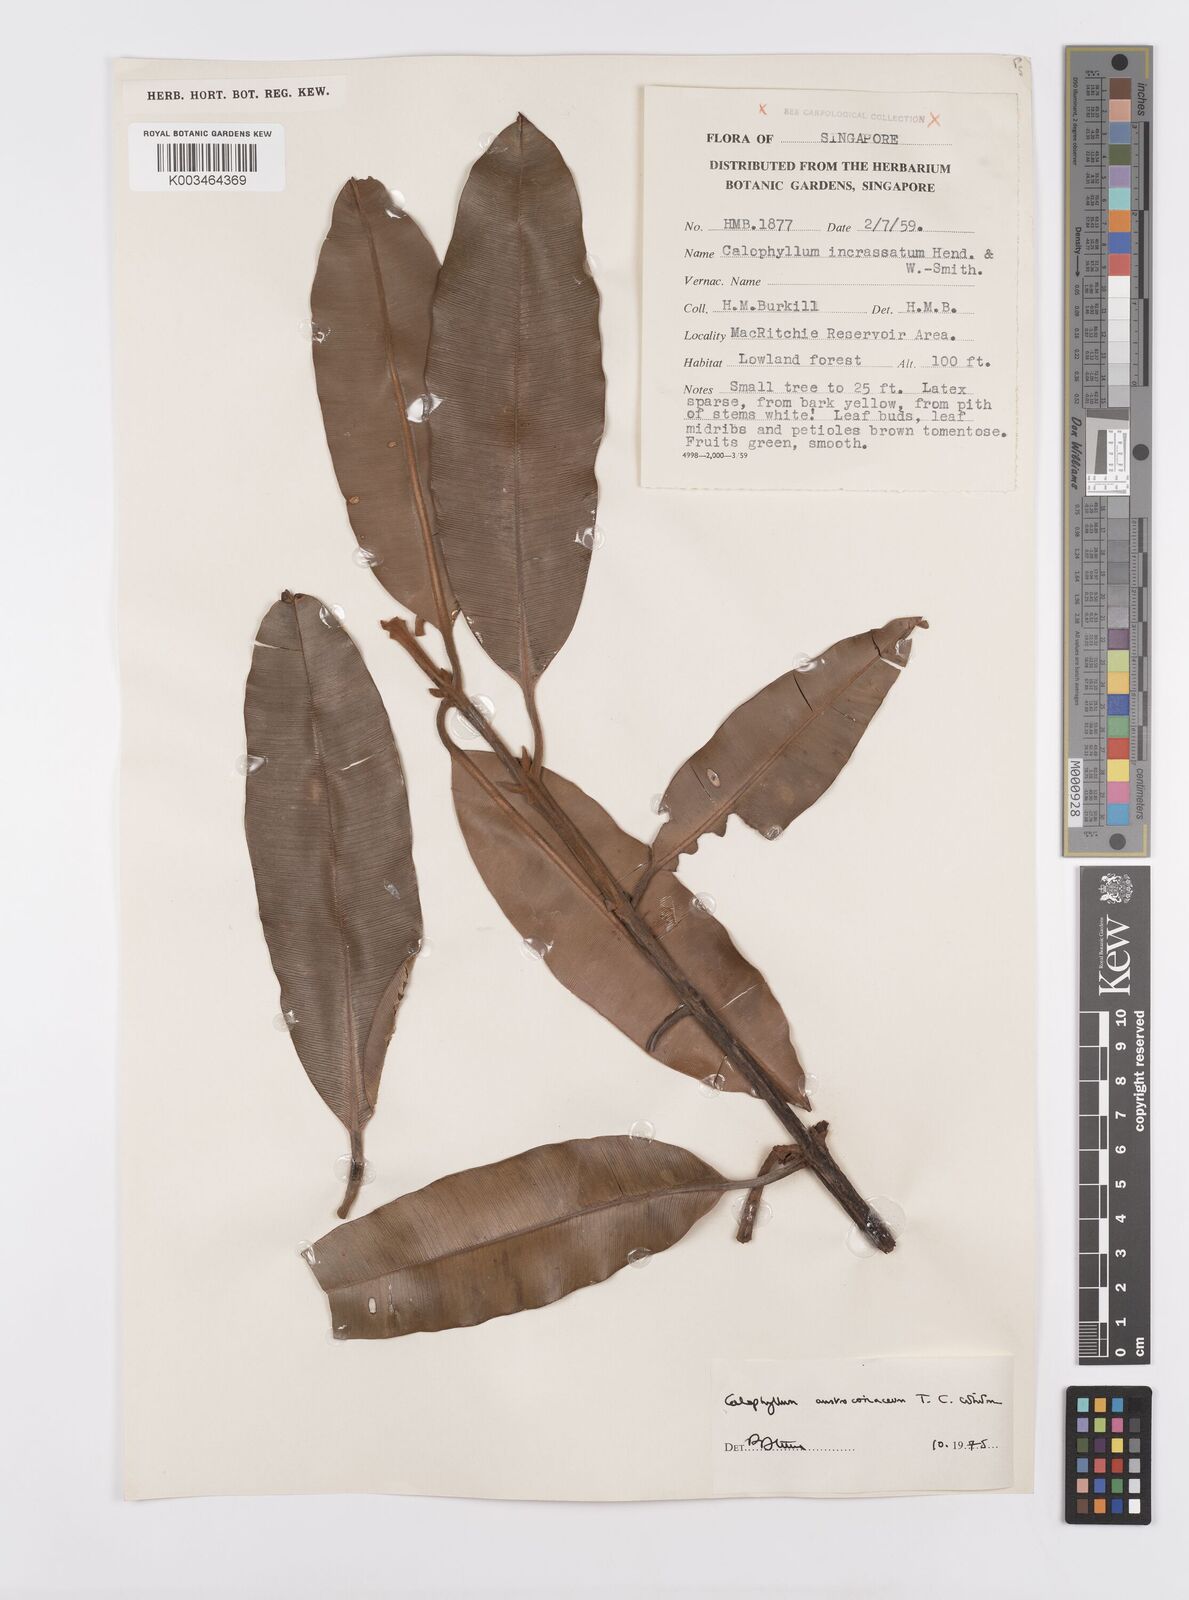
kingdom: Plantae
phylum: Tracheophyta
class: Magnoliopsida
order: Malpighiales
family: Calophyllaceae
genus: Calophyllum
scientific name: Calophyllum lanigerum
